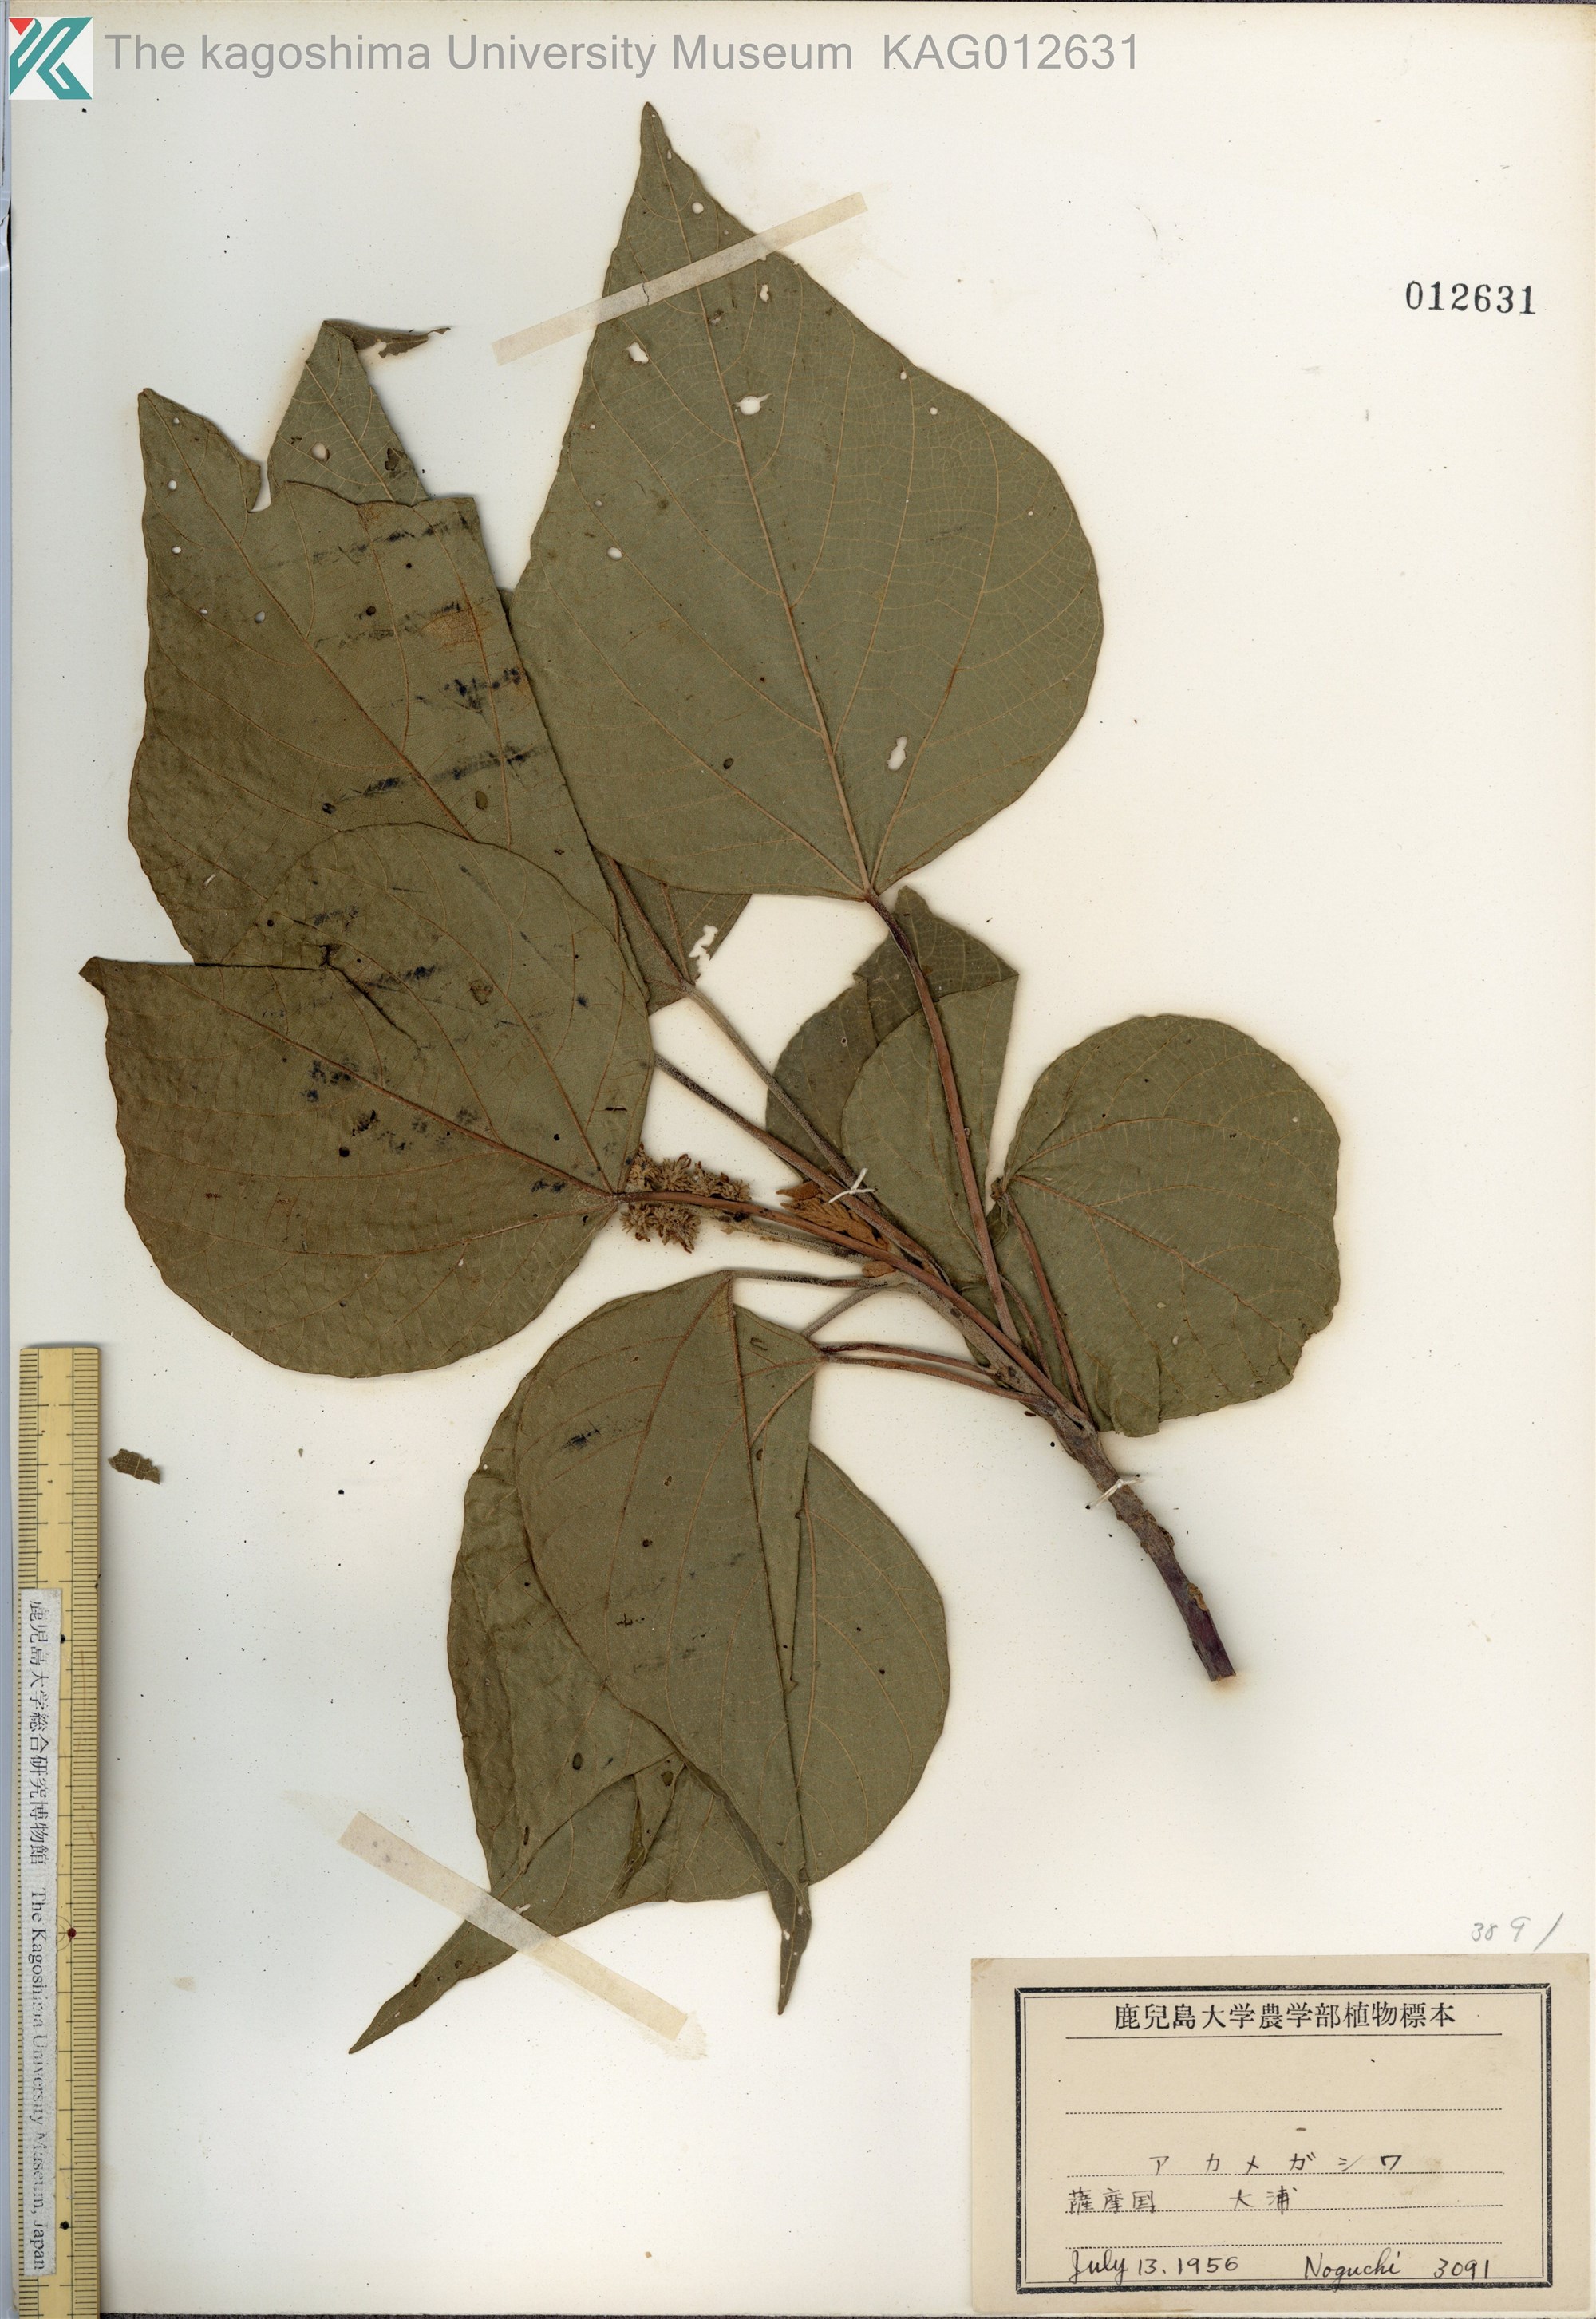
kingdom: Plantae
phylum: Tracheophyta
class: Magnoliopsida
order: Malpighiales
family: Euphorbiaceae
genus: Mallotus
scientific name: Mallotus japonicus
